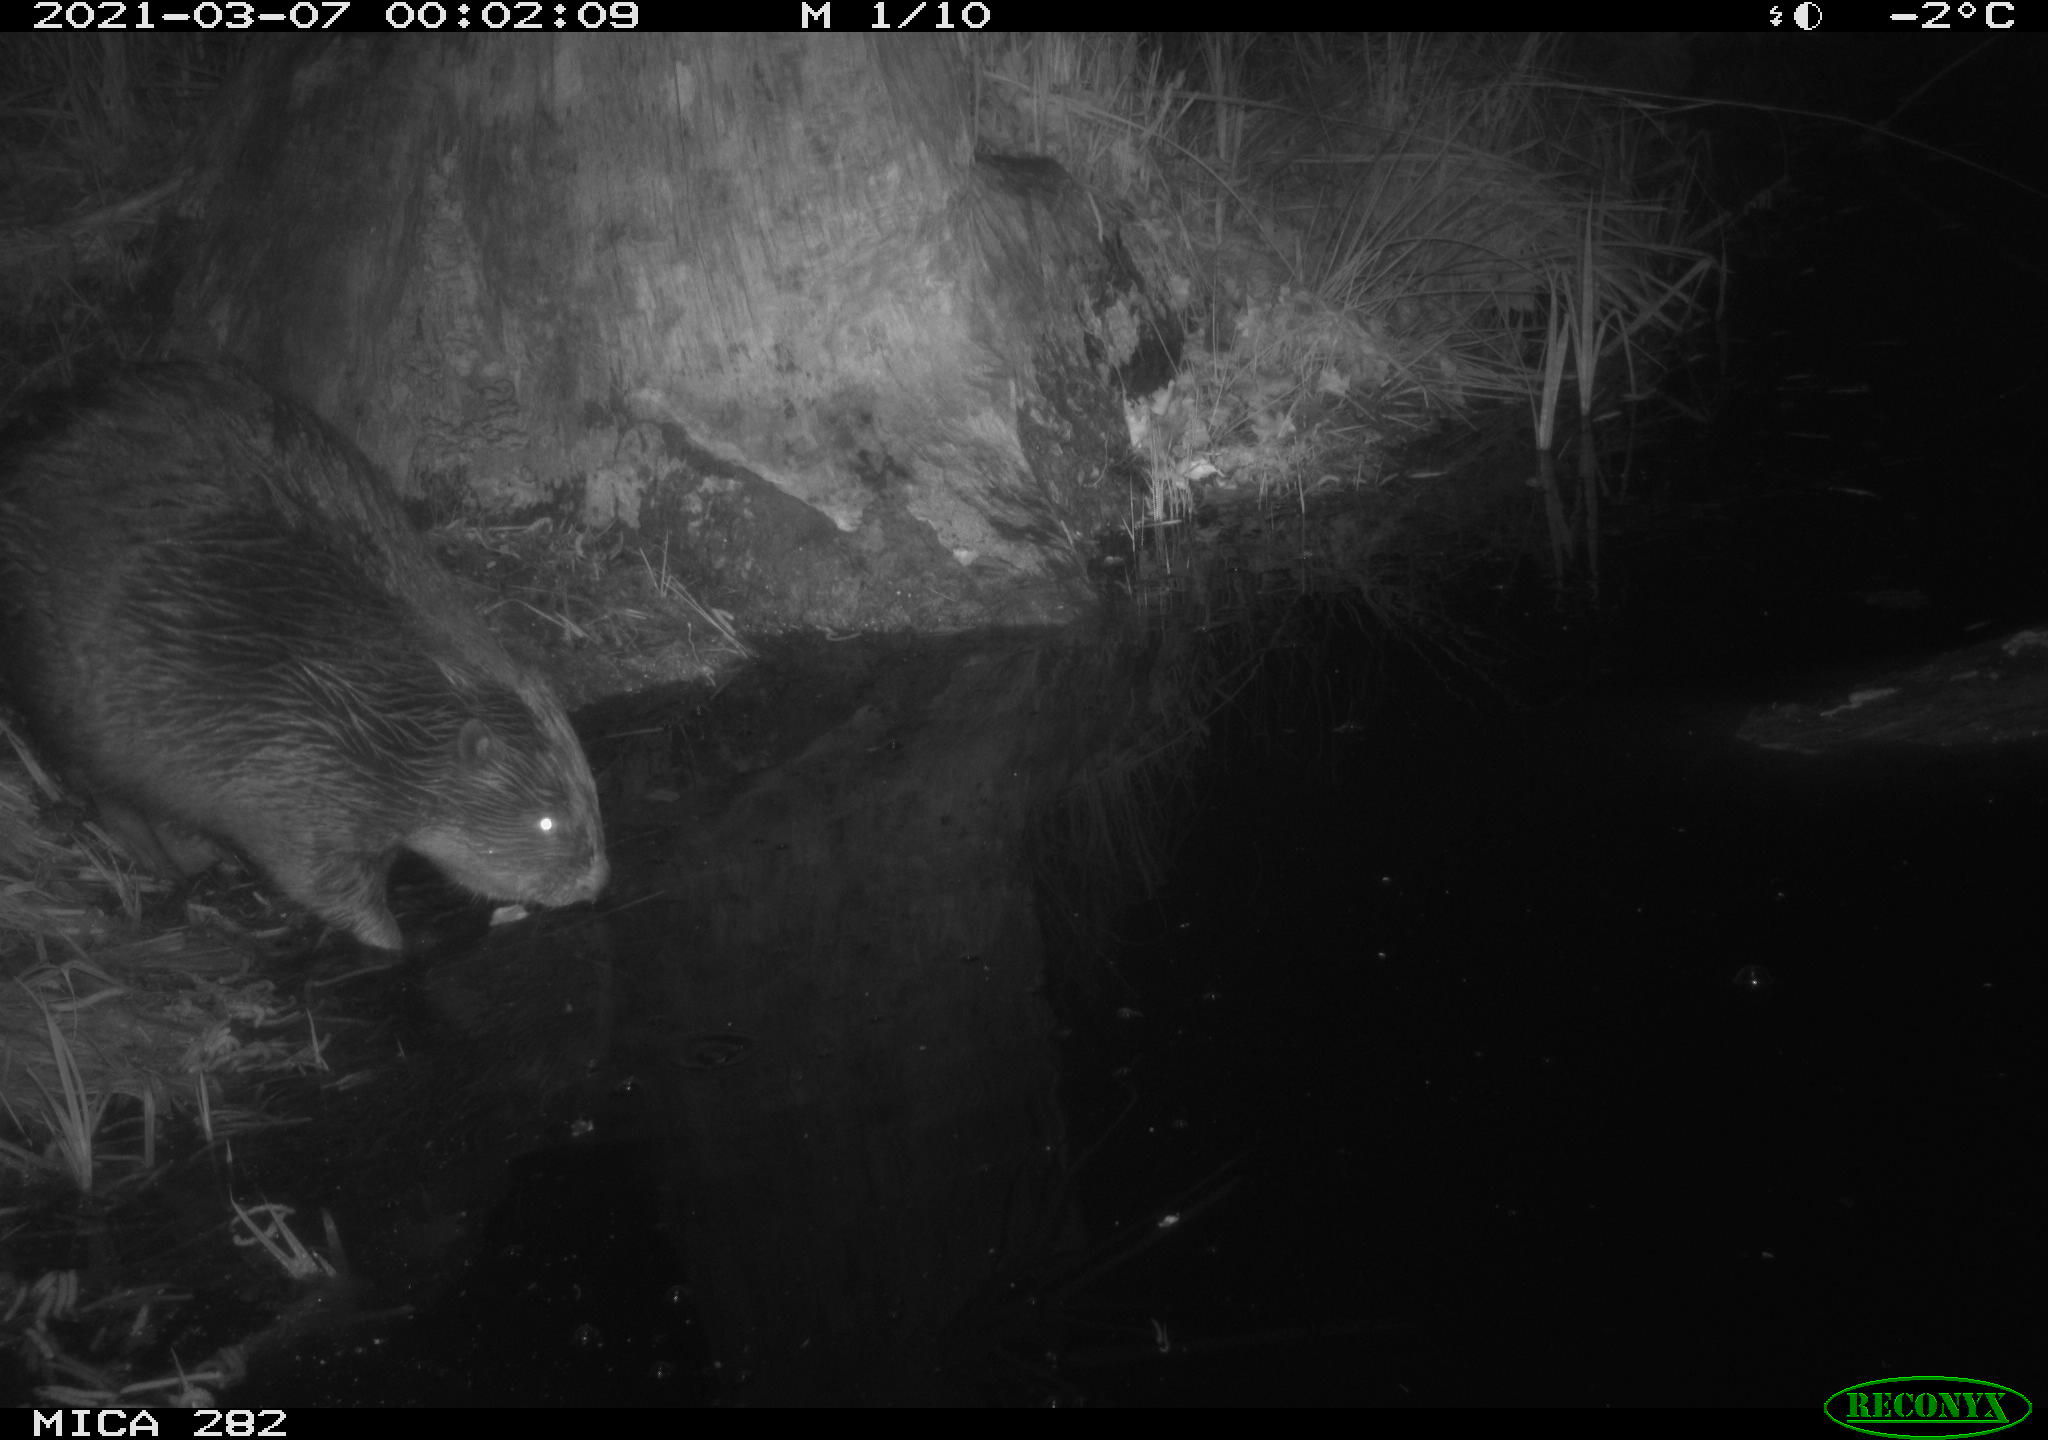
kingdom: Animalia
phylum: Chordata
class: Mammalia
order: Rodentia
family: Castoridae
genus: Castor
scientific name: Castor fiber
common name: Eurasian beaver
